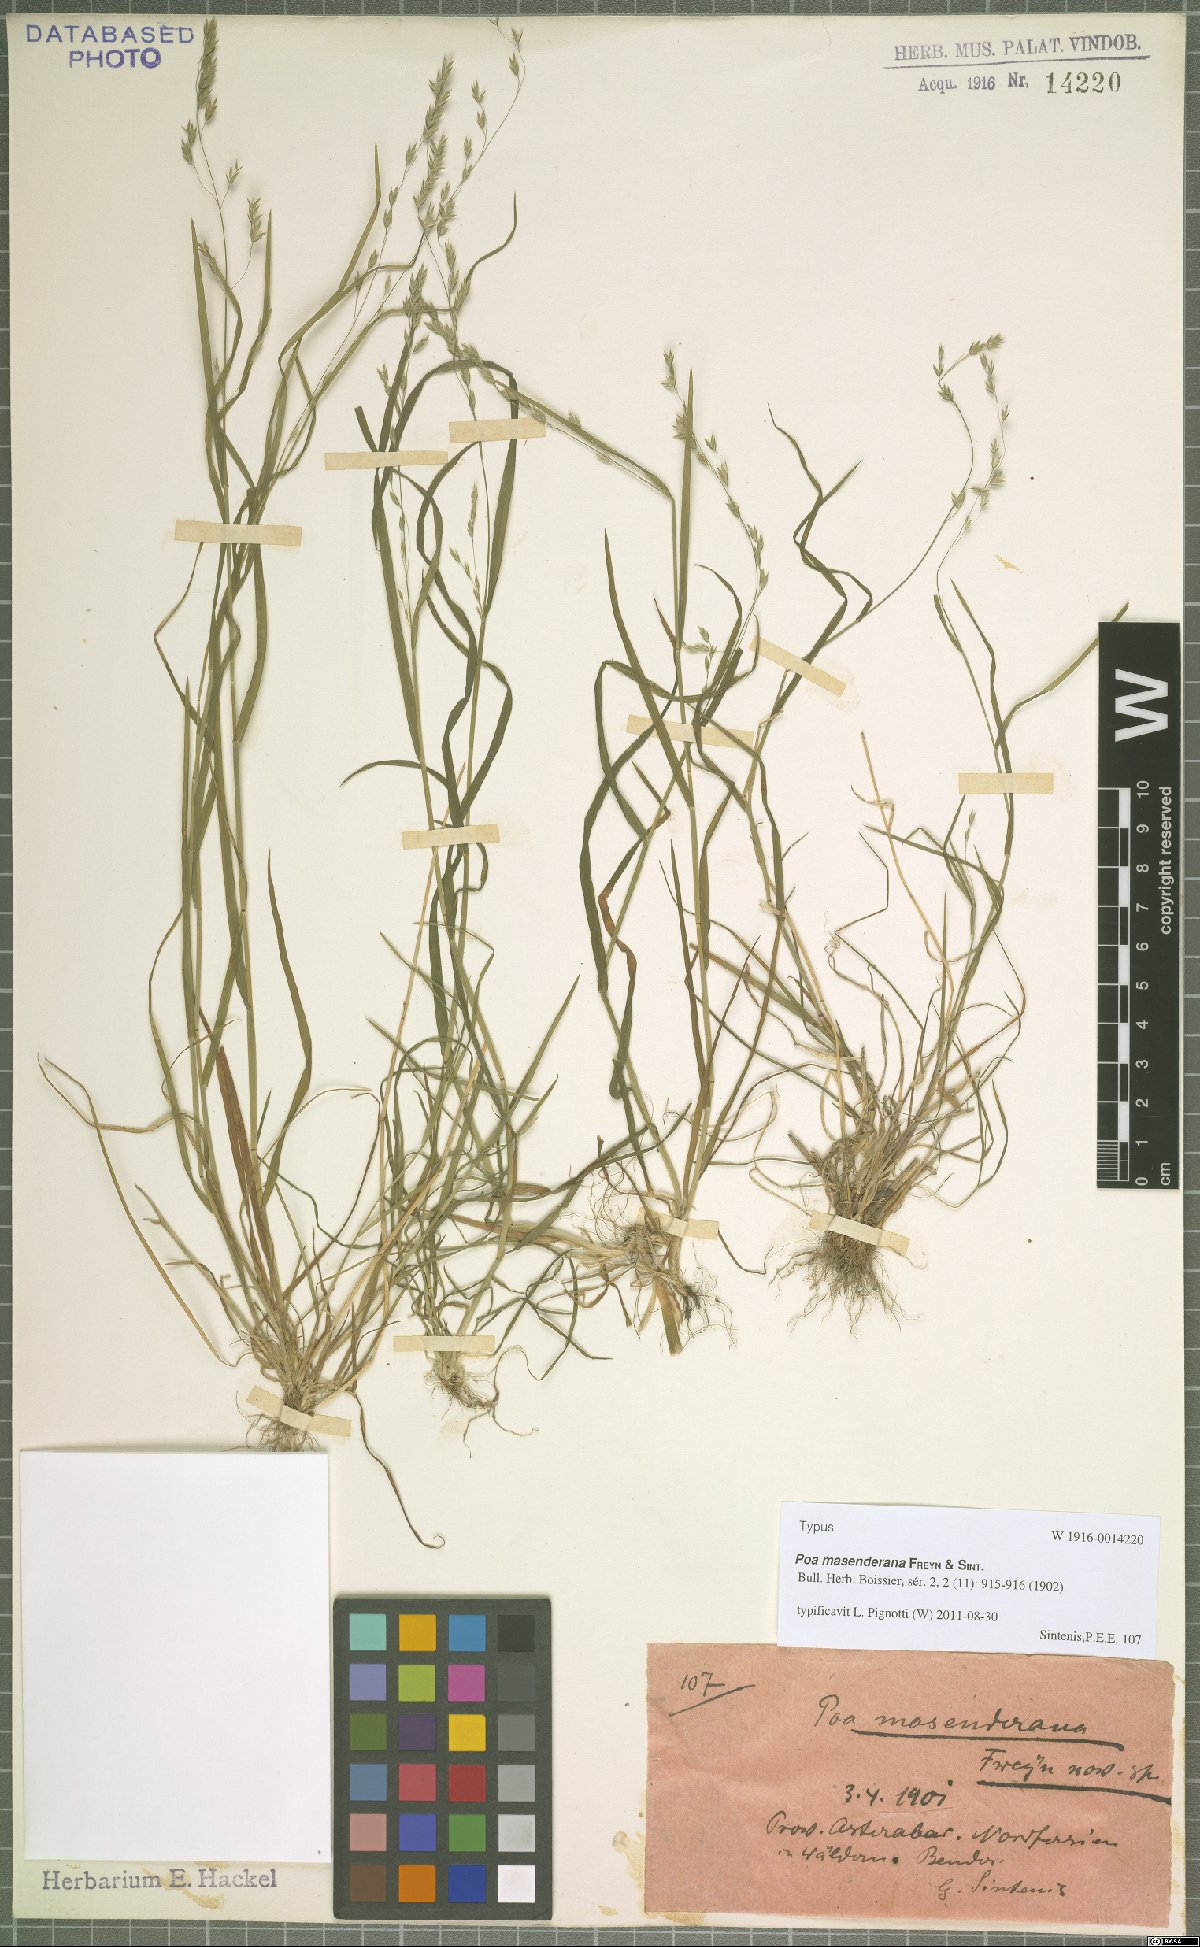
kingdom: Plantae
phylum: Tracheophyta
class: Liliopsida
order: Poales
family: Poaceae
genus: Poa
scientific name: Poa masenderana
